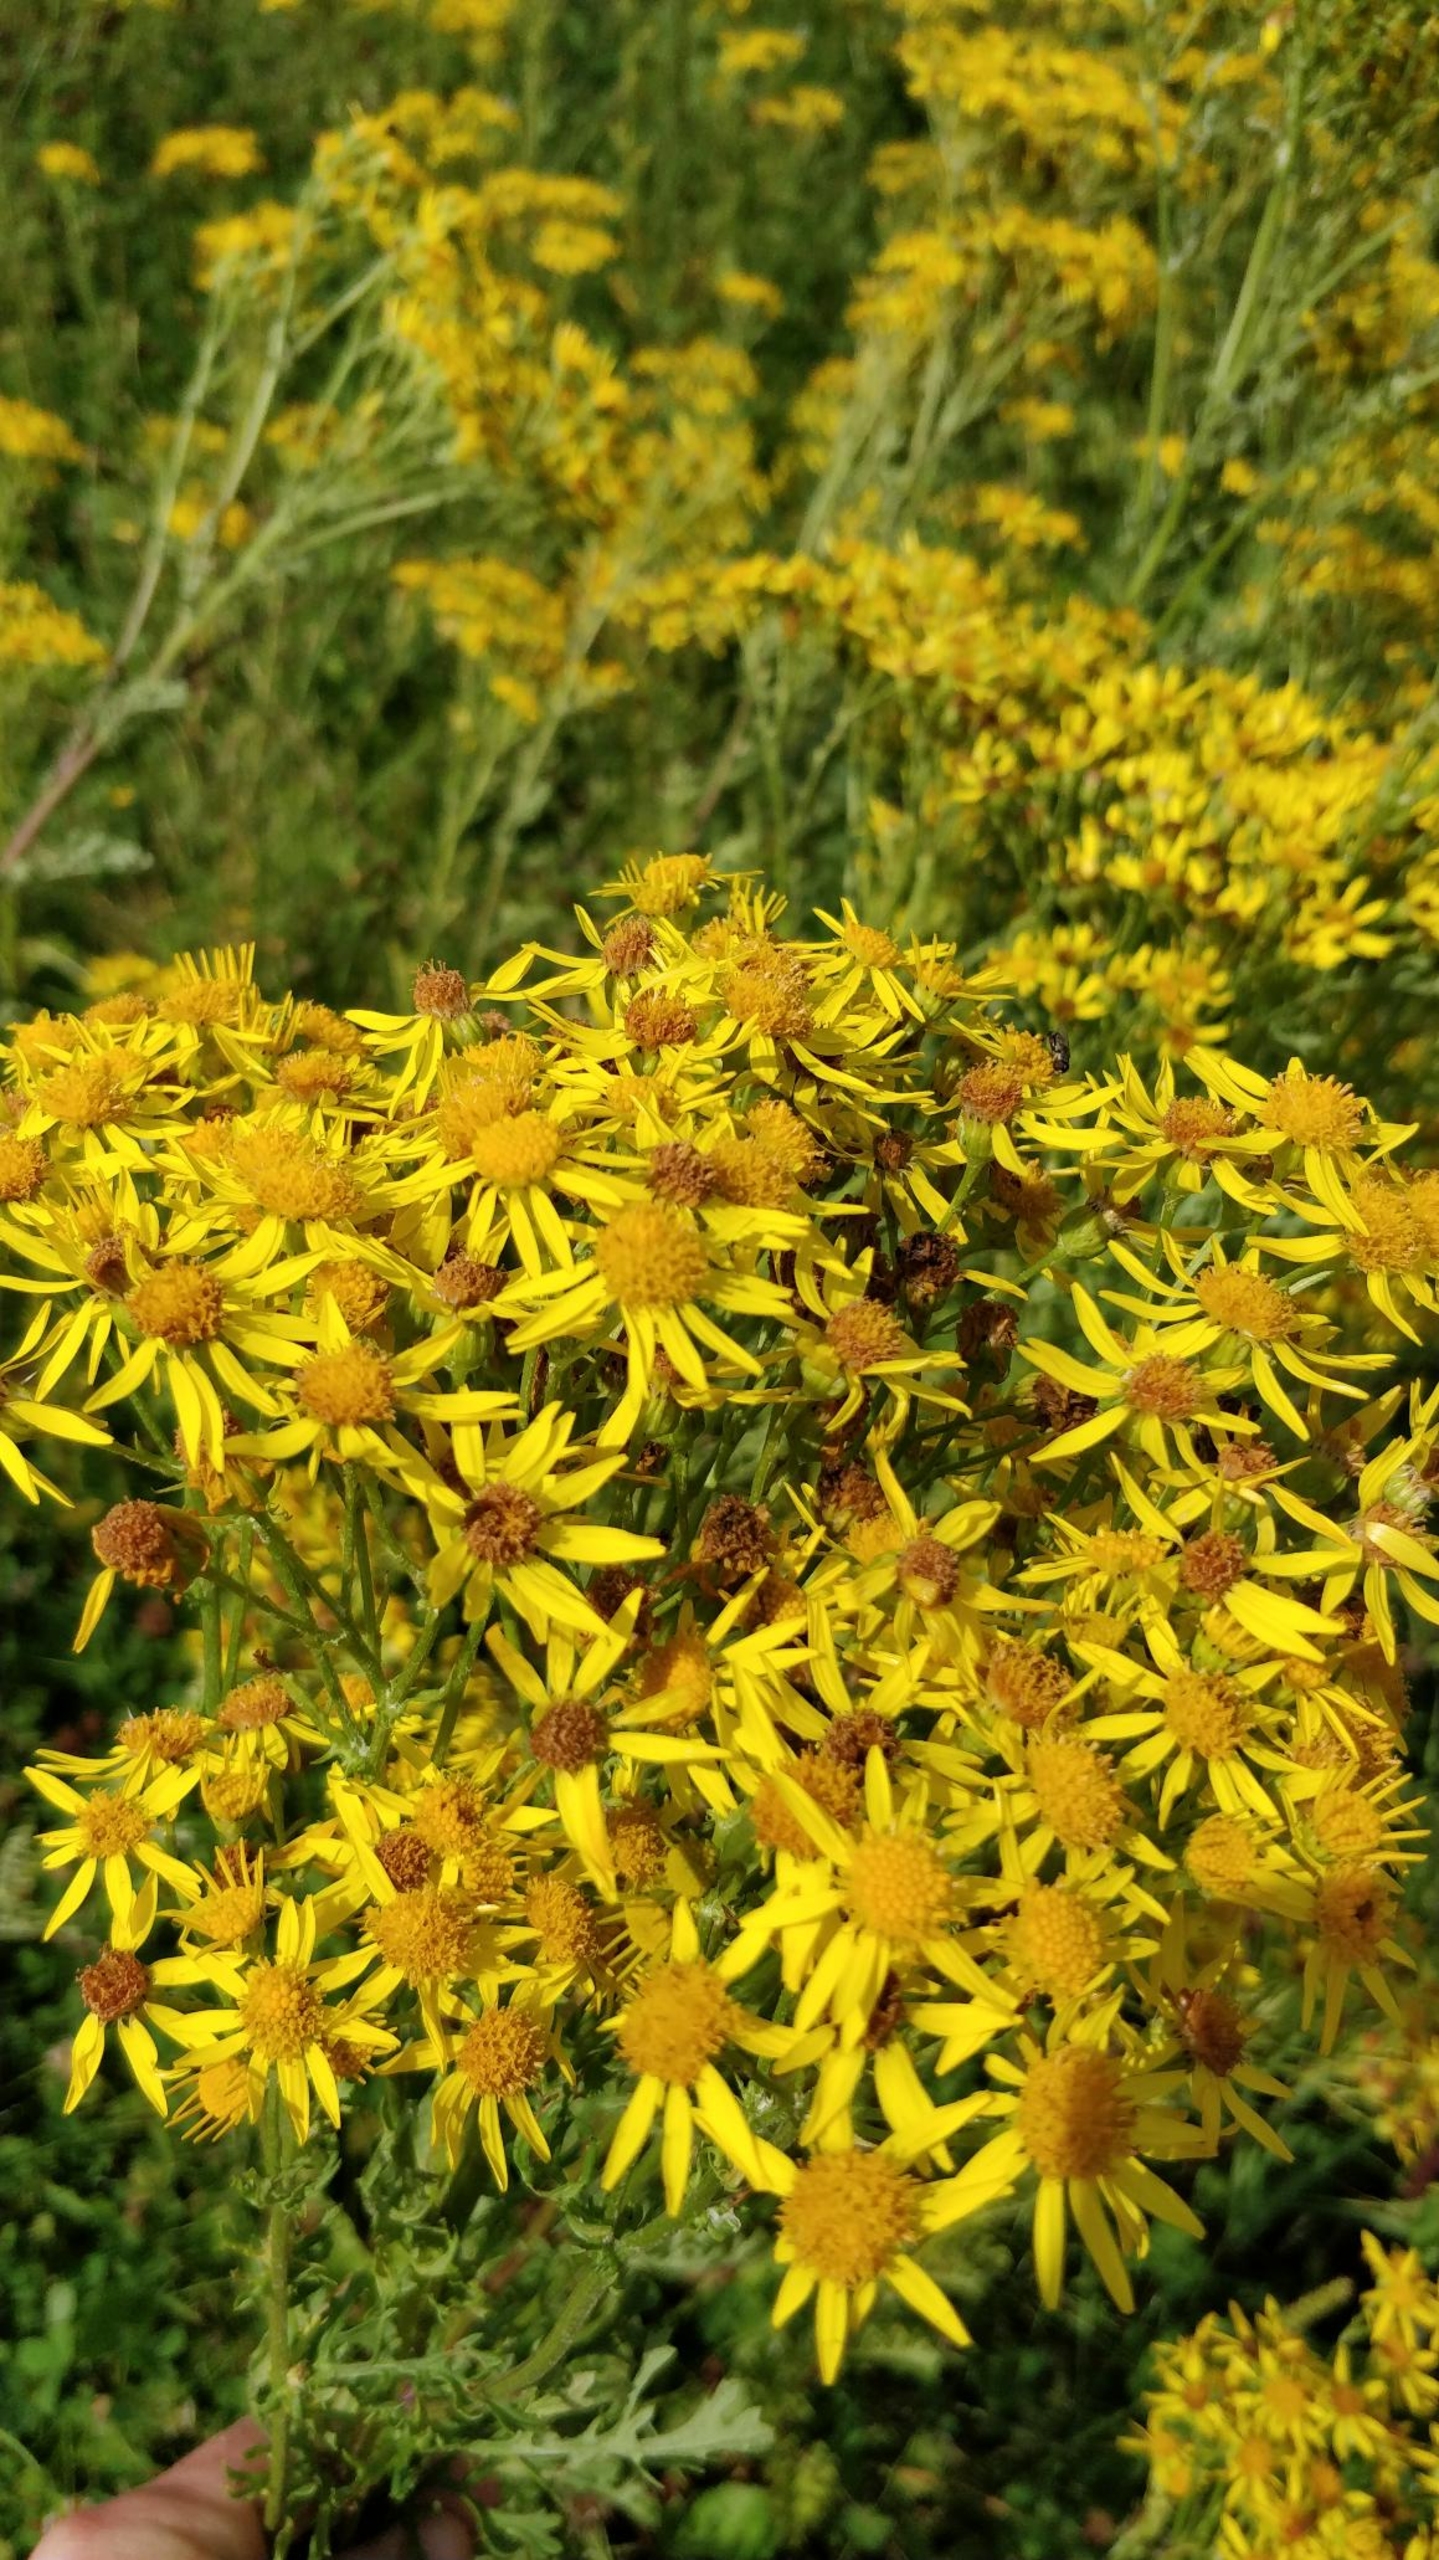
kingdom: Plantae
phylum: Tracheophyta
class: Magnoliopsida
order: Asterales
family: Asteraceae
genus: Jacobaea
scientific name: Jacobaea vulgaris
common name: Eng-brandbæger
